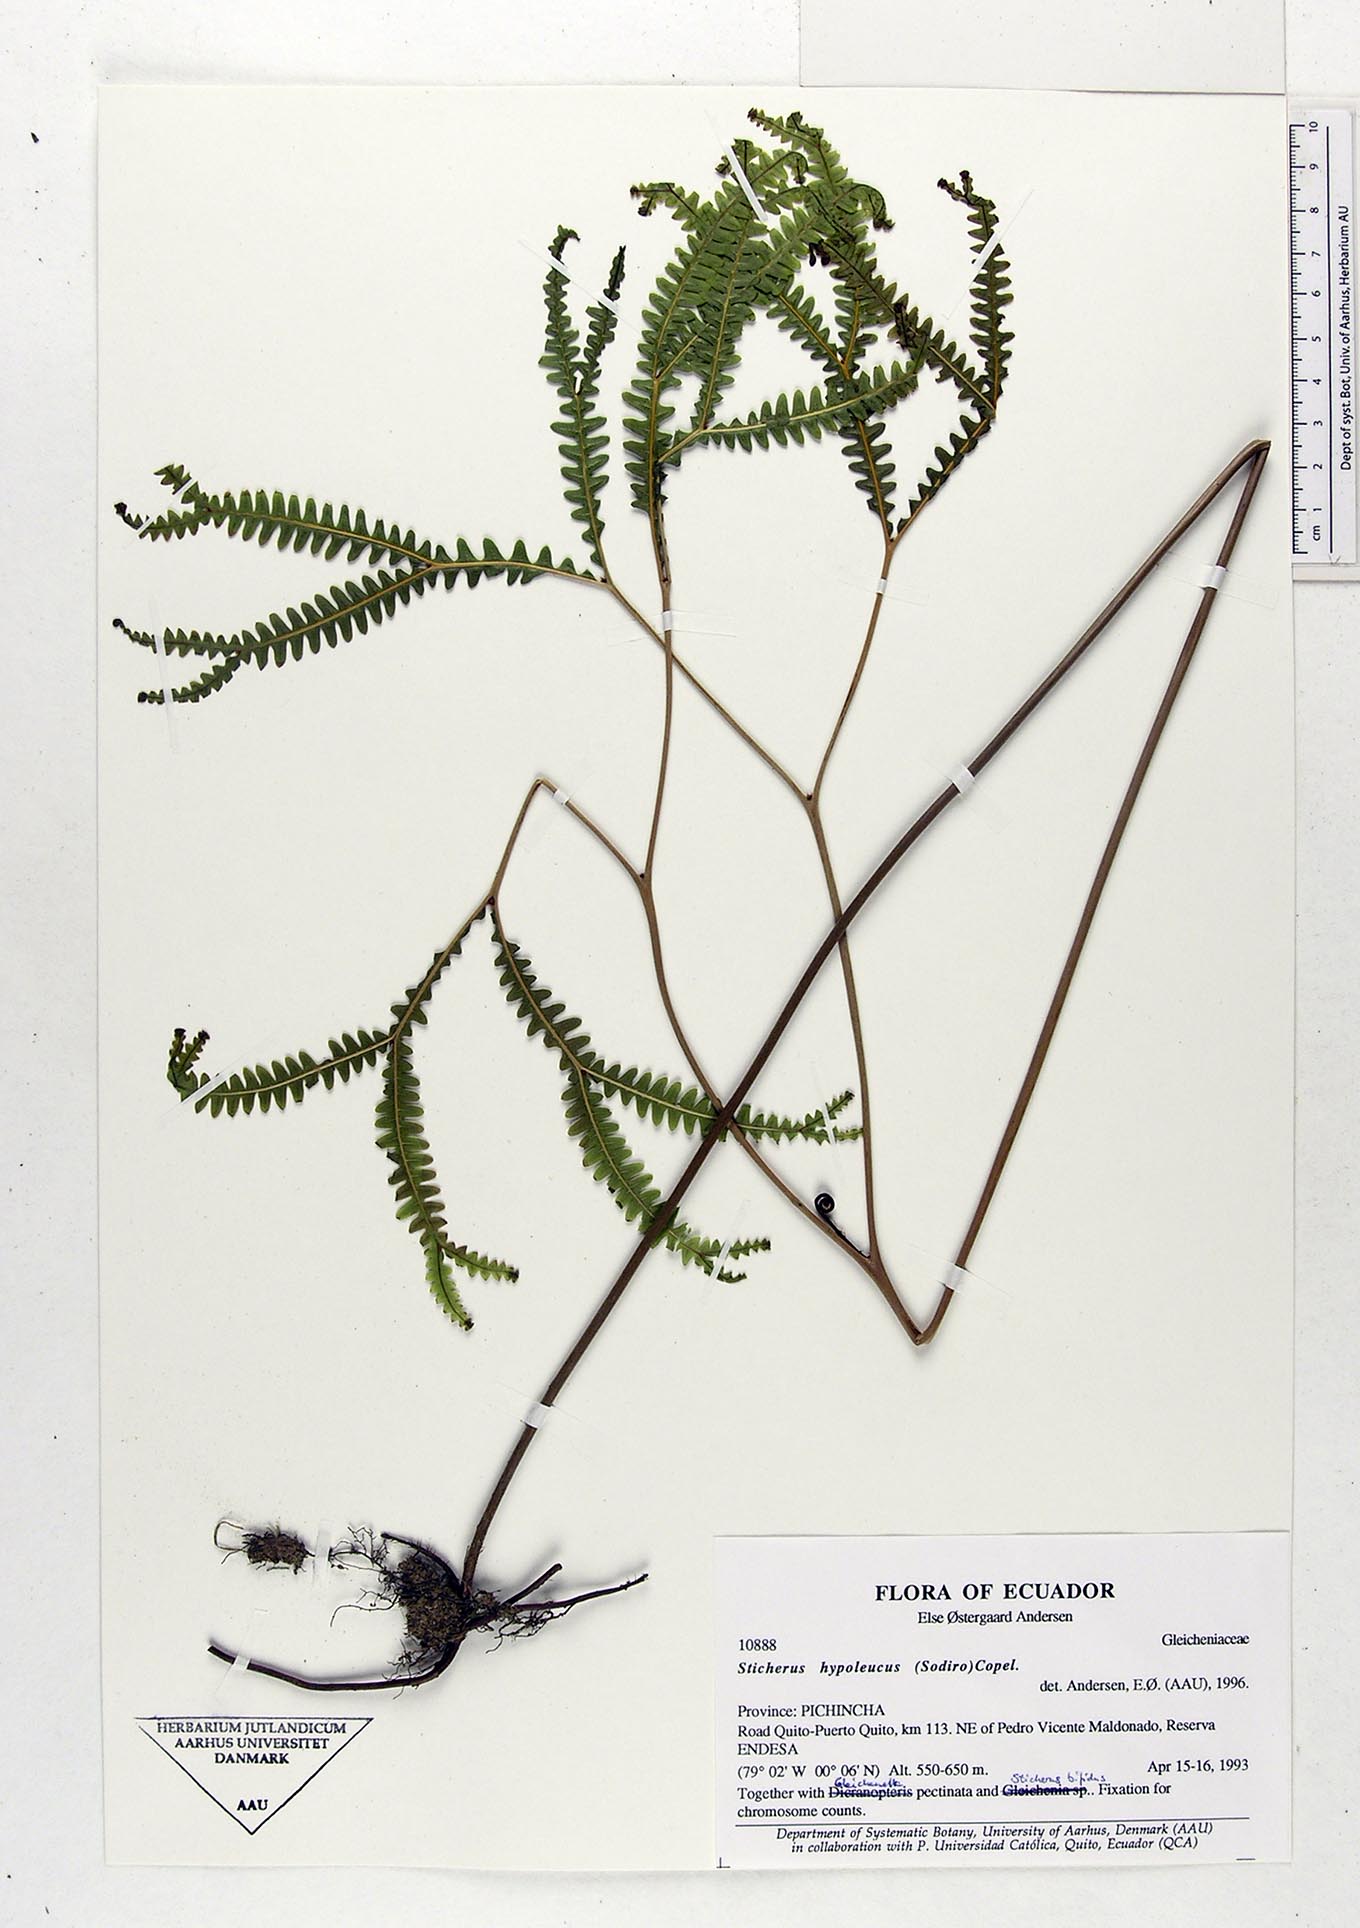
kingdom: Plantae
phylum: Tracheophyta
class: Polypodiopsida
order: Gleicheniales
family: Gleicheniaceae
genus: Sticherus
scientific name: Sticherus hypoleucus
